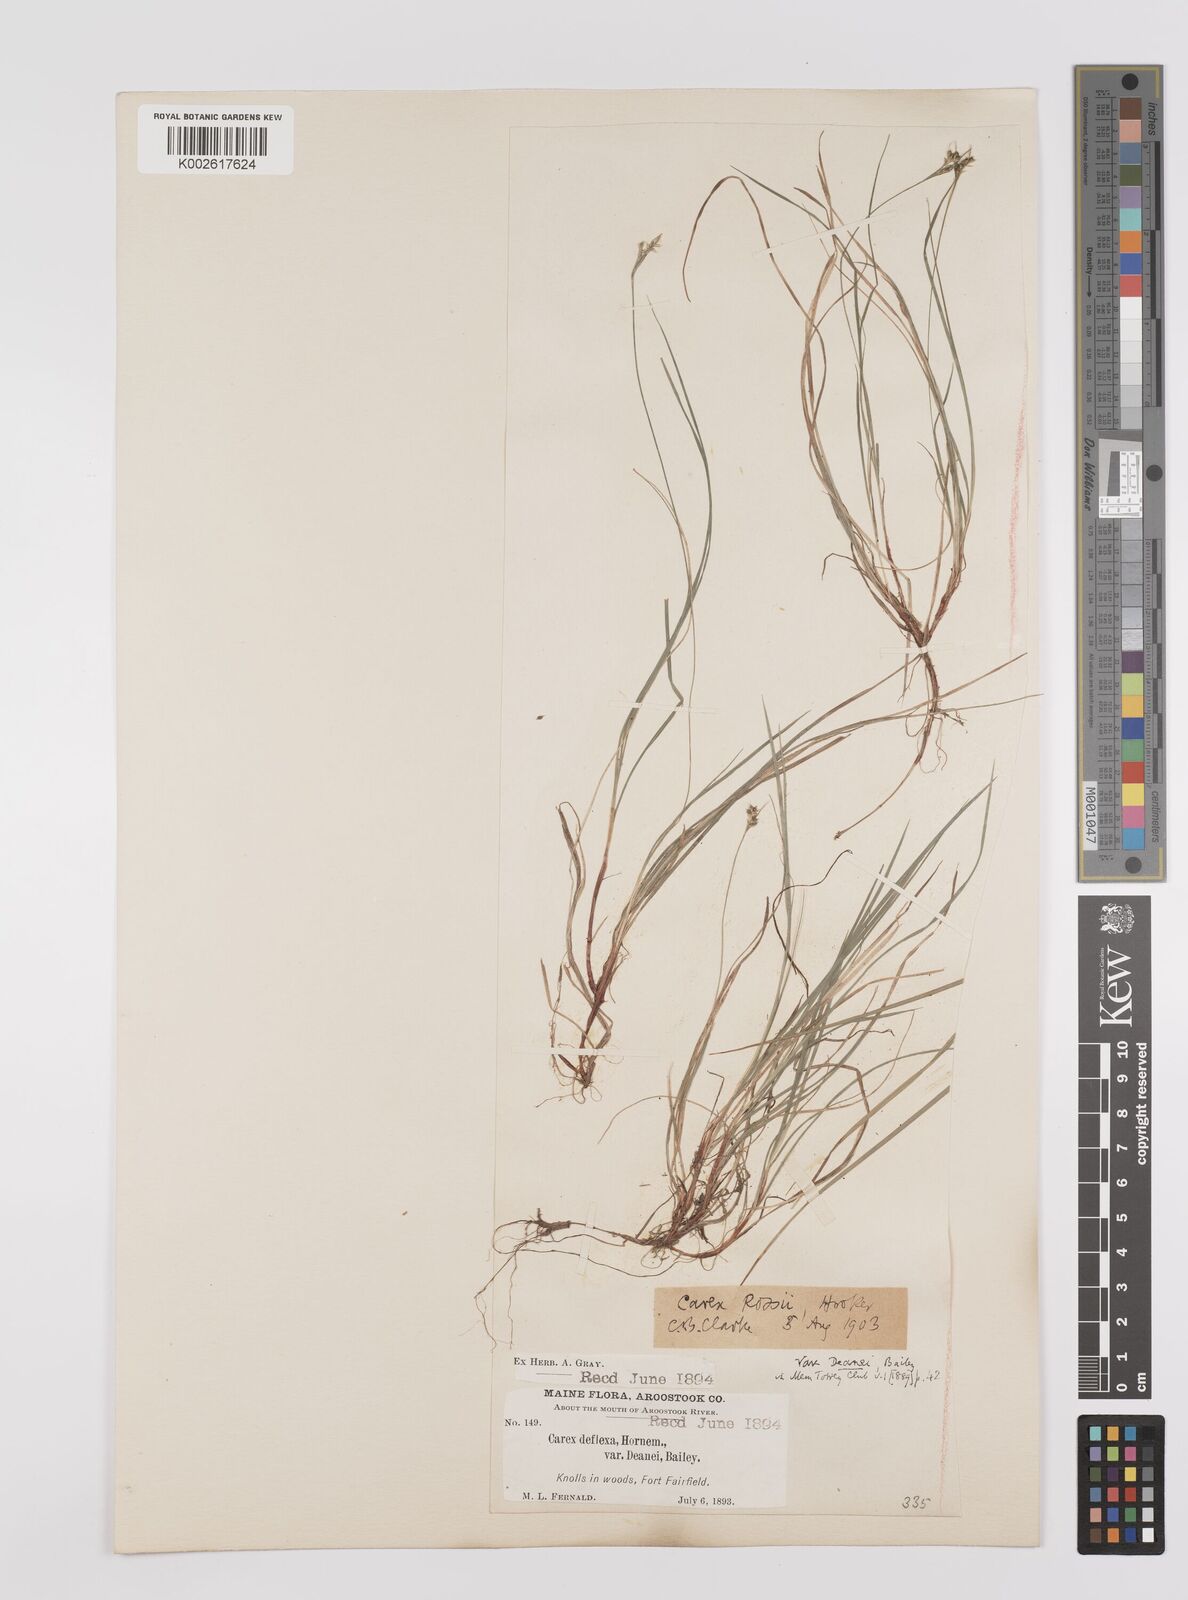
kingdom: Plantae
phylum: Tracheophyta
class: Liliopsida
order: Poales
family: Cyperaceae
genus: Carex
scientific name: Carex rossii
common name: Ross' sedge
